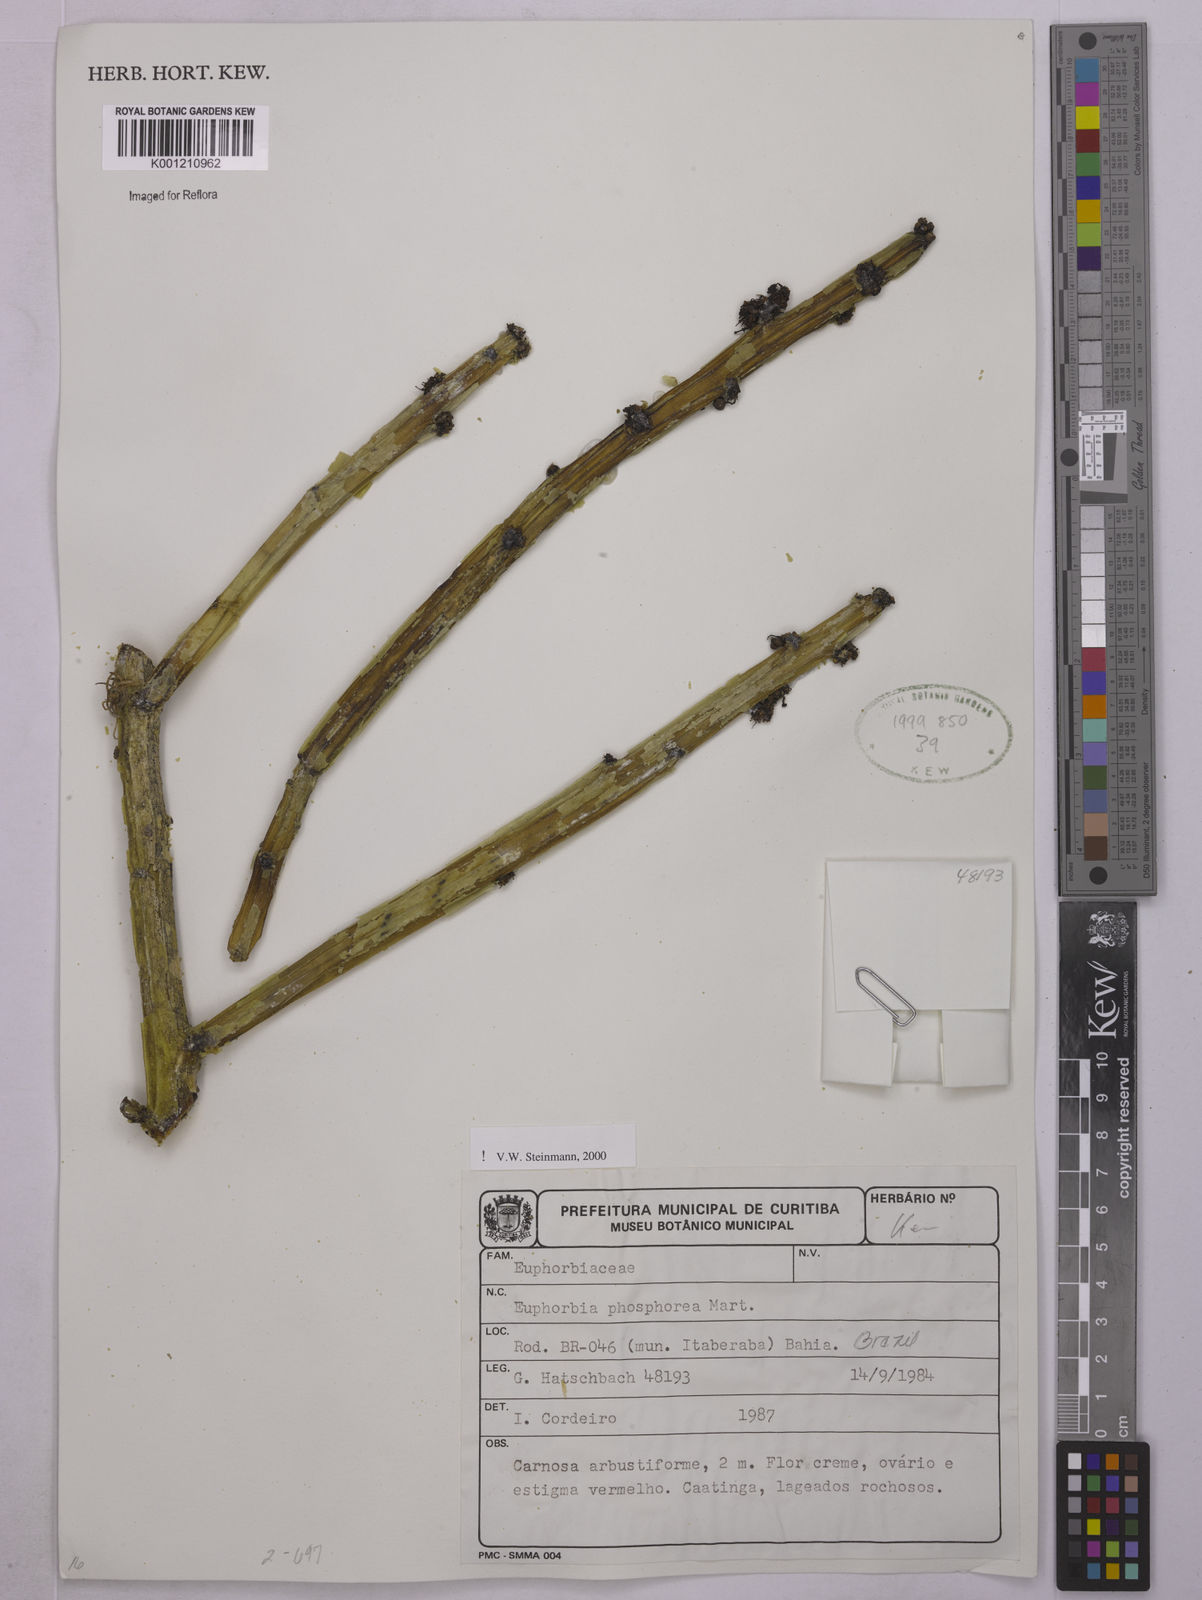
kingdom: Plantae
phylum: Tracheophyta
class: Magnoliopsida
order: Malpighiales
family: Euphorbiaceae
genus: Euphorbia
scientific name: Euphorbia phosphorea
